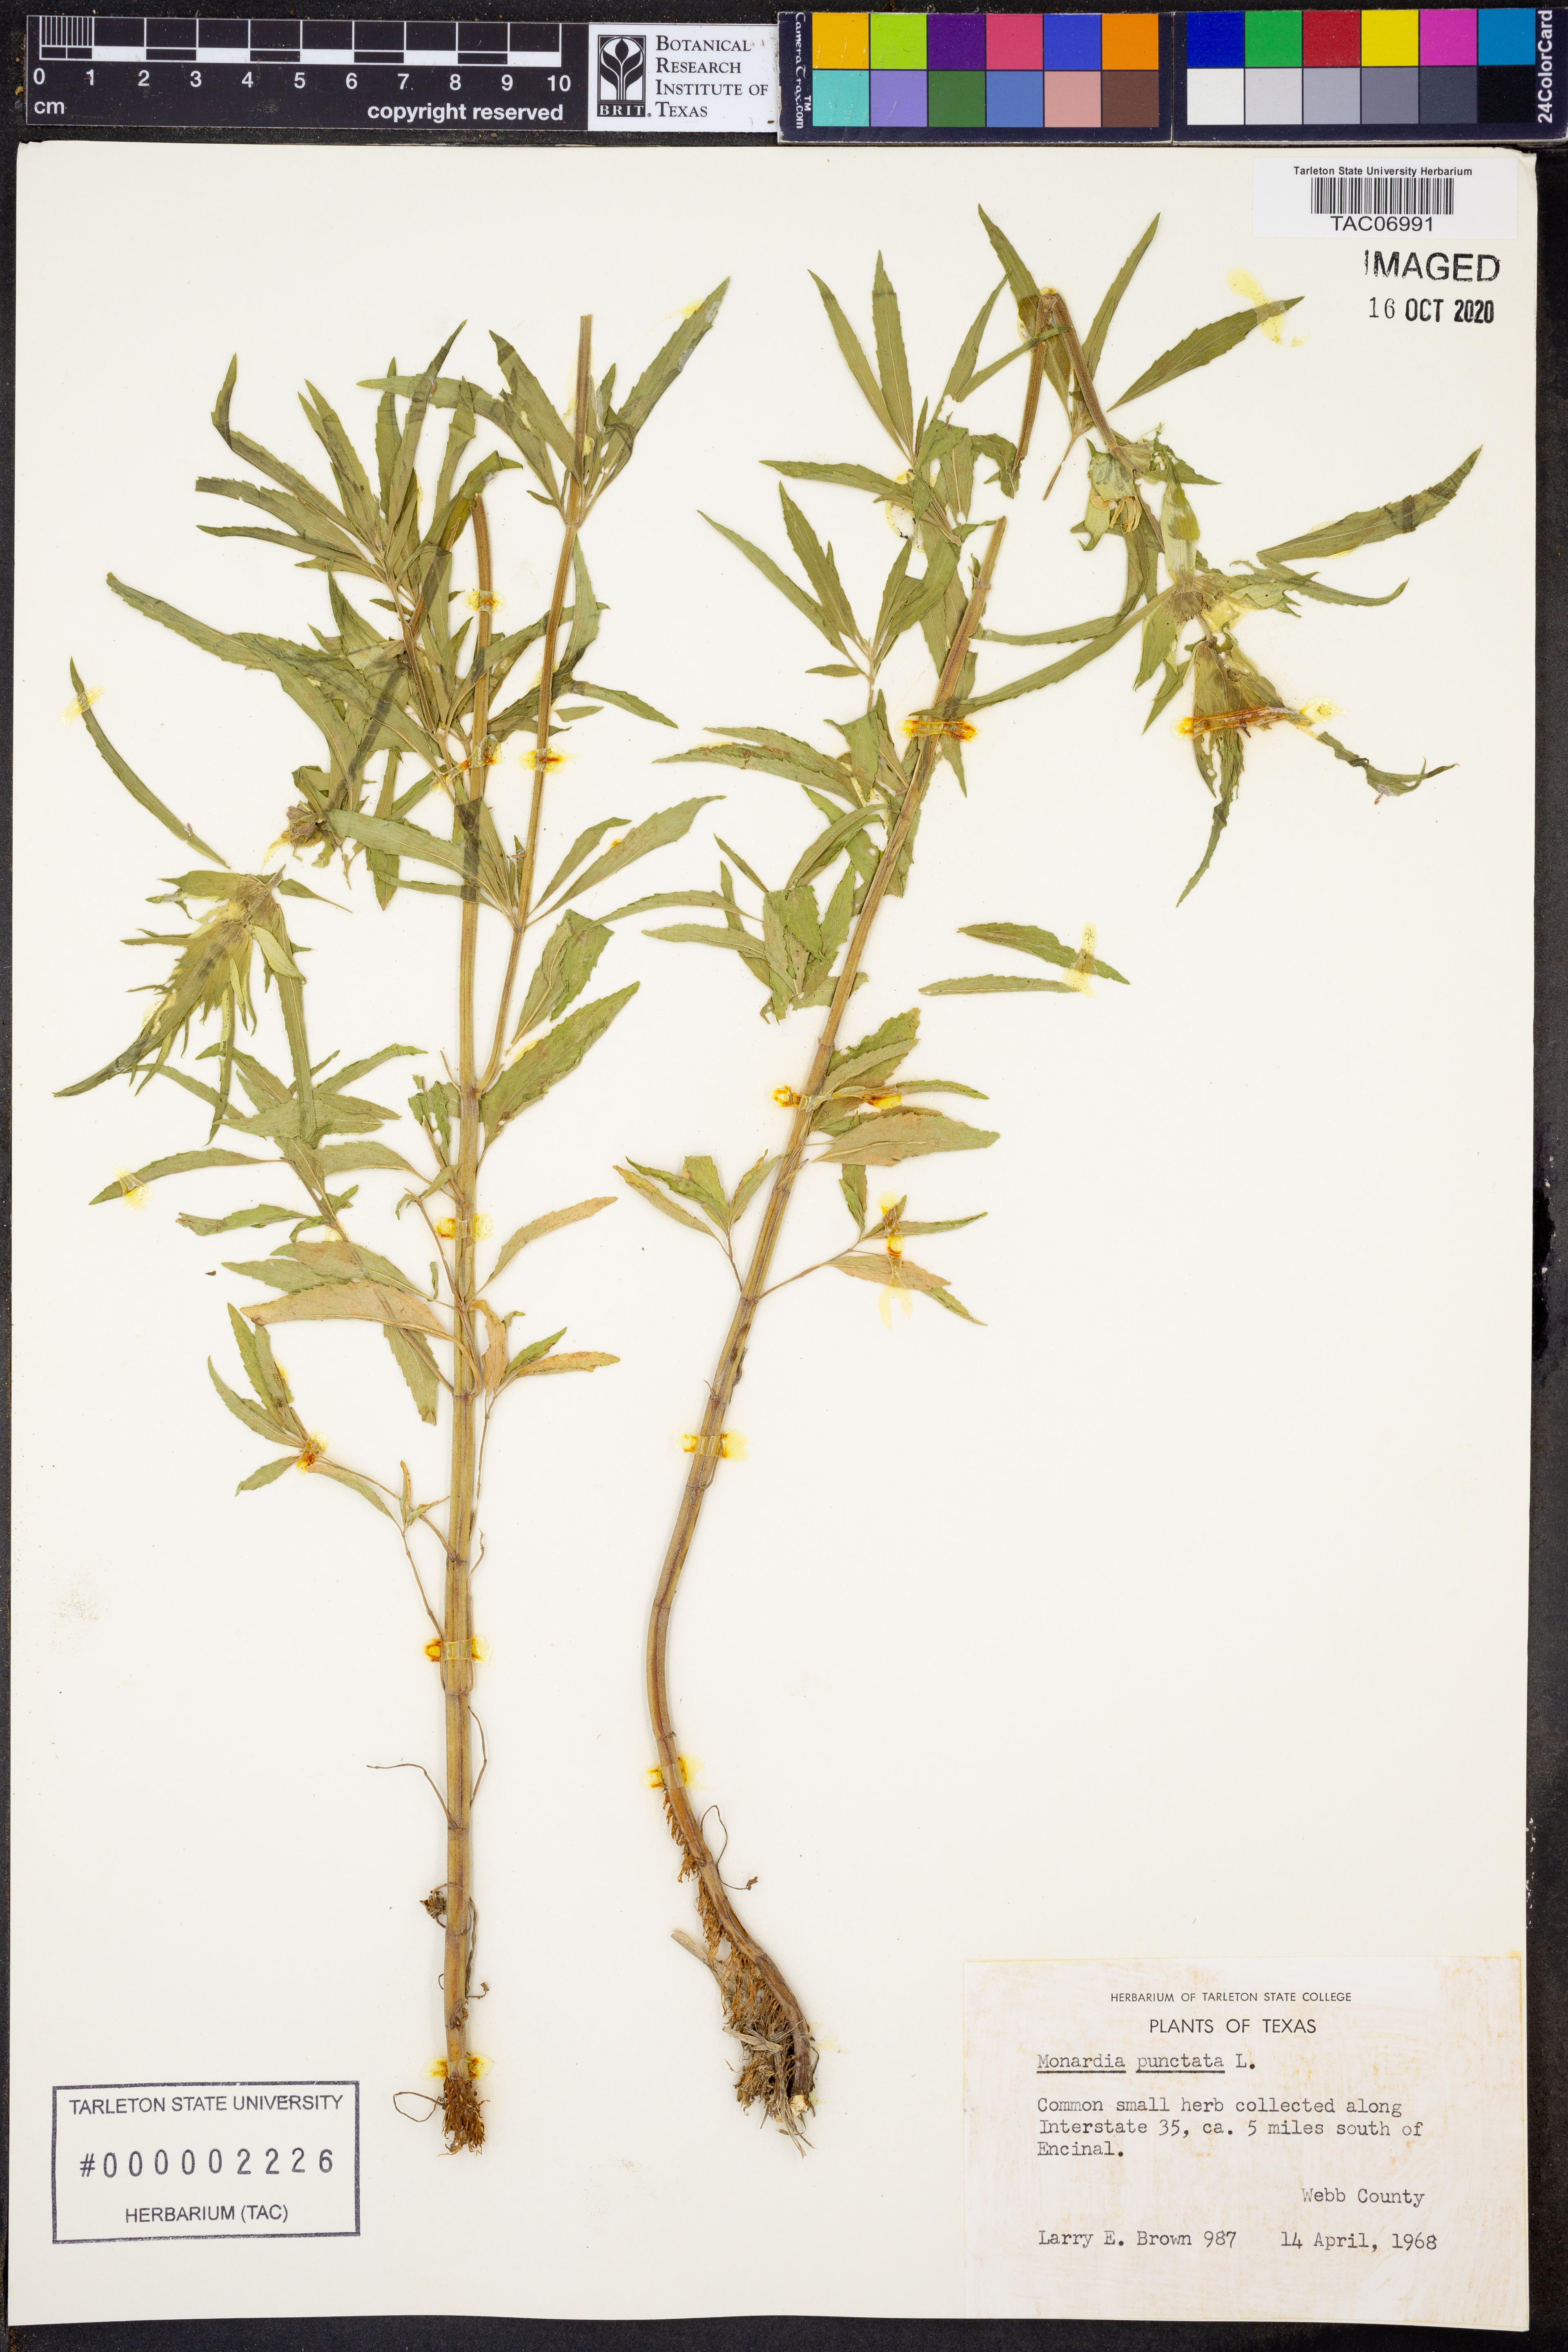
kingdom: Plantae
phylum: Tracheophyta
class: Magnoliopsida
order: Lamiales
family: Lamiaceae
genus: Monarda
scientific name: Monarda punctata
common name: Dotted monarda
